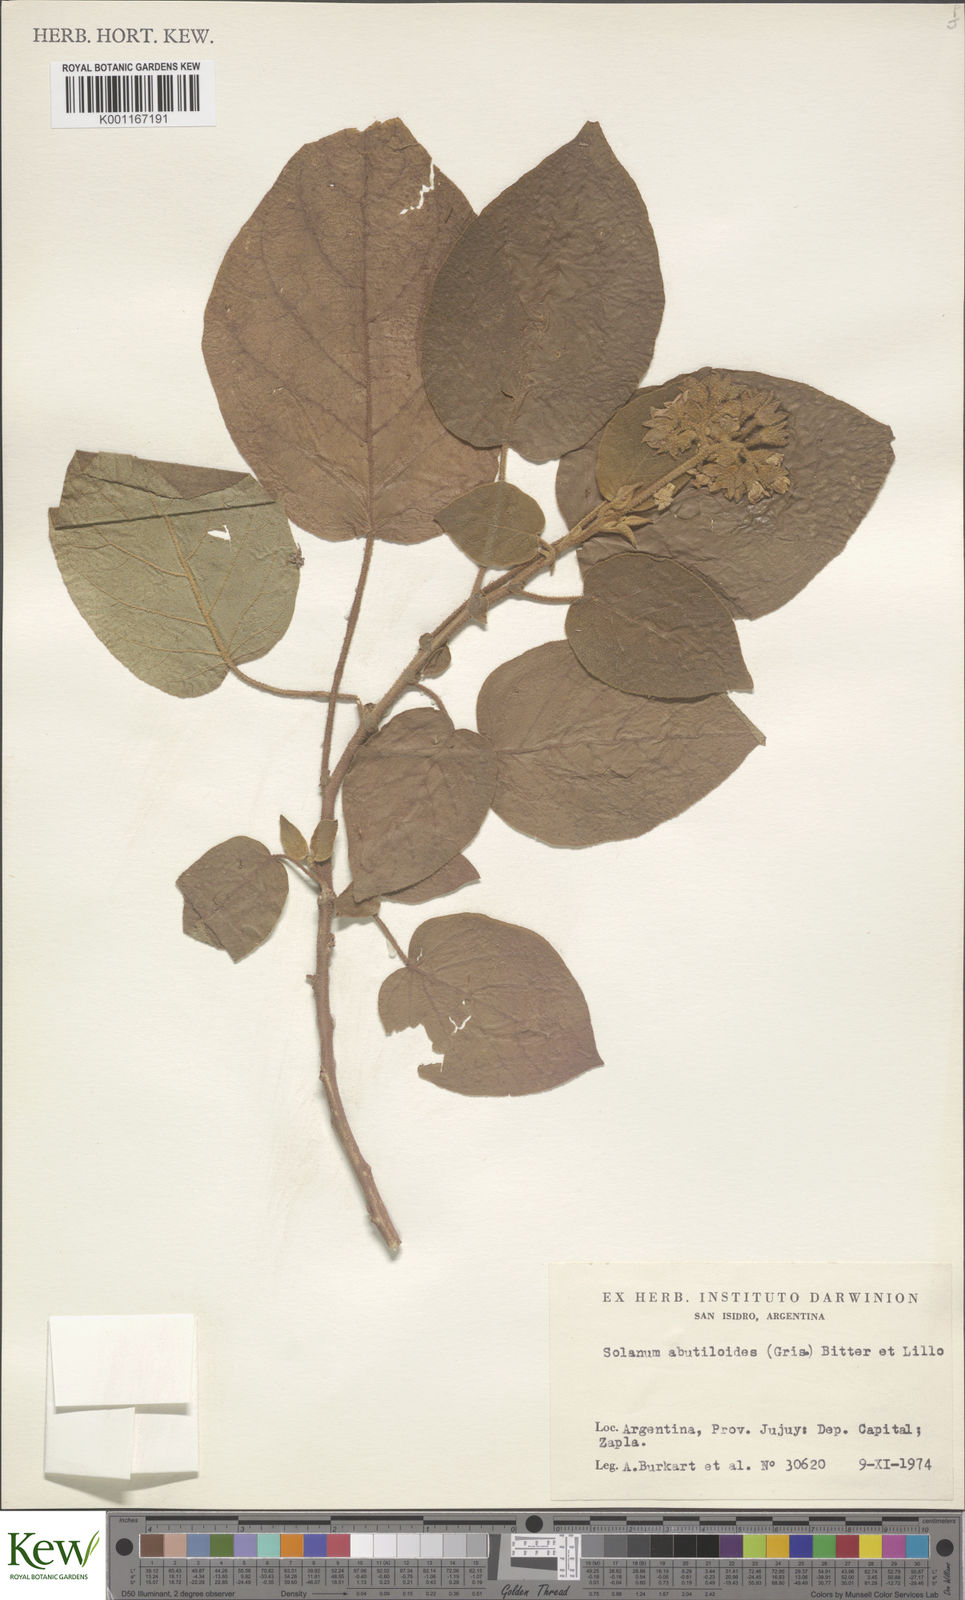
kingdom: Plantae
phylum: Tracheophyta
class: Magnoliopsida
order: Solanales
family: Solanaceae
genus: Solanum
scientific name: Solanum abutiloides
